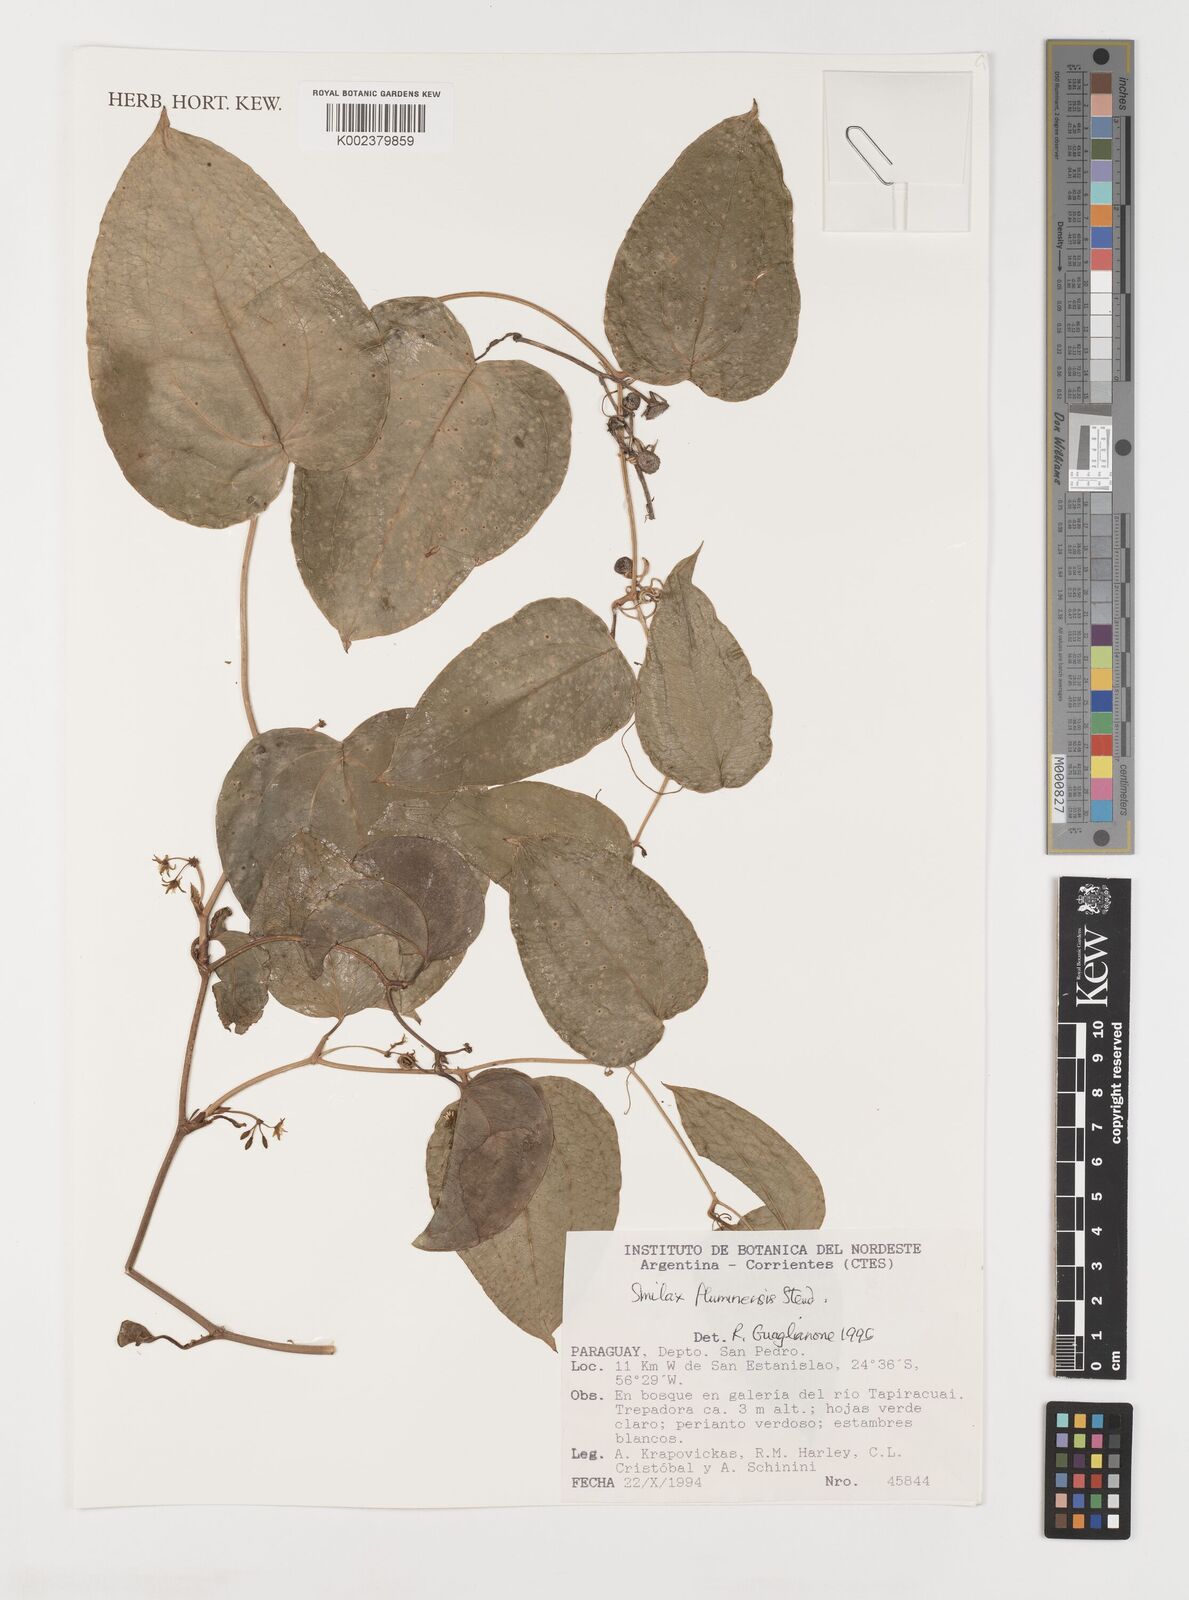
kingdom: Plantae
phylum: Tracheophyta
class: Liliopsida
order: Liliales
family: Smilacaceae
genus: Smilax
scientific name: Smilax fluminensis
